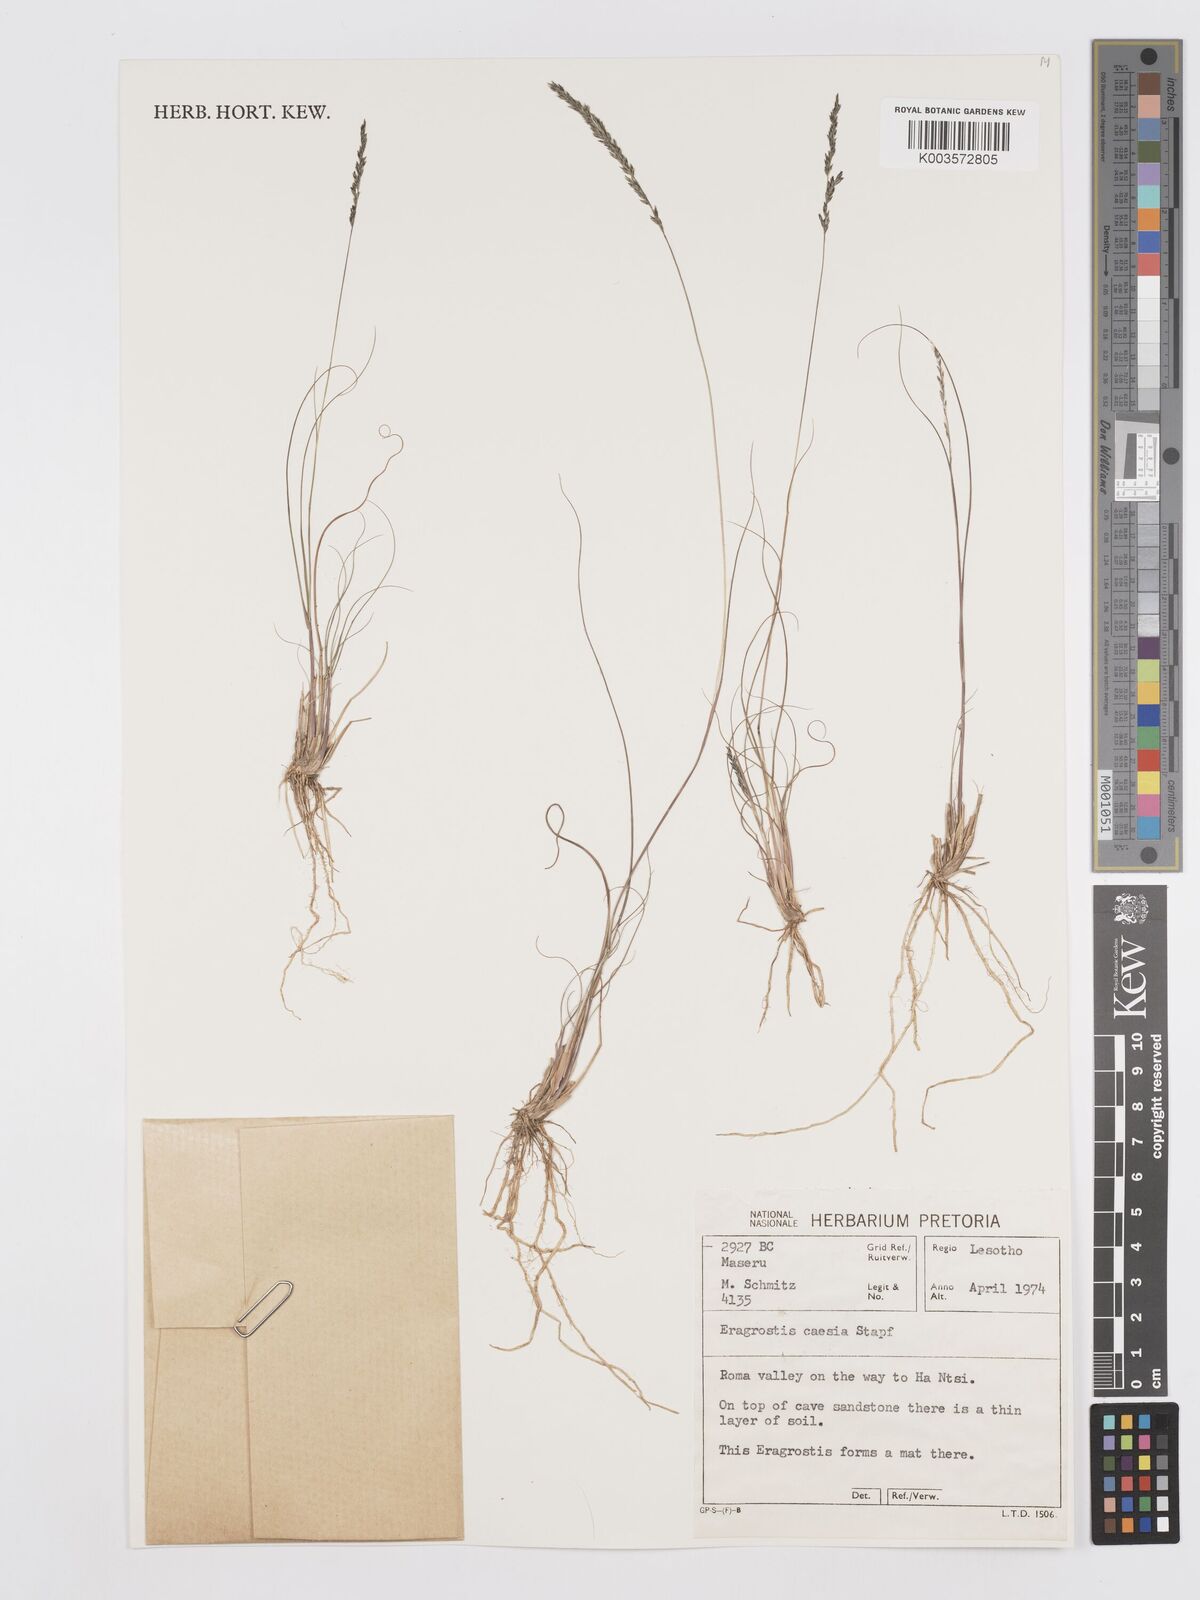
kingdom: Plantae
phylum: Tracheophyta
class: Liliopsida
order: Poales
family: Poaceae
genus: Eragrostis
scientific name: Eragrostis caesia
